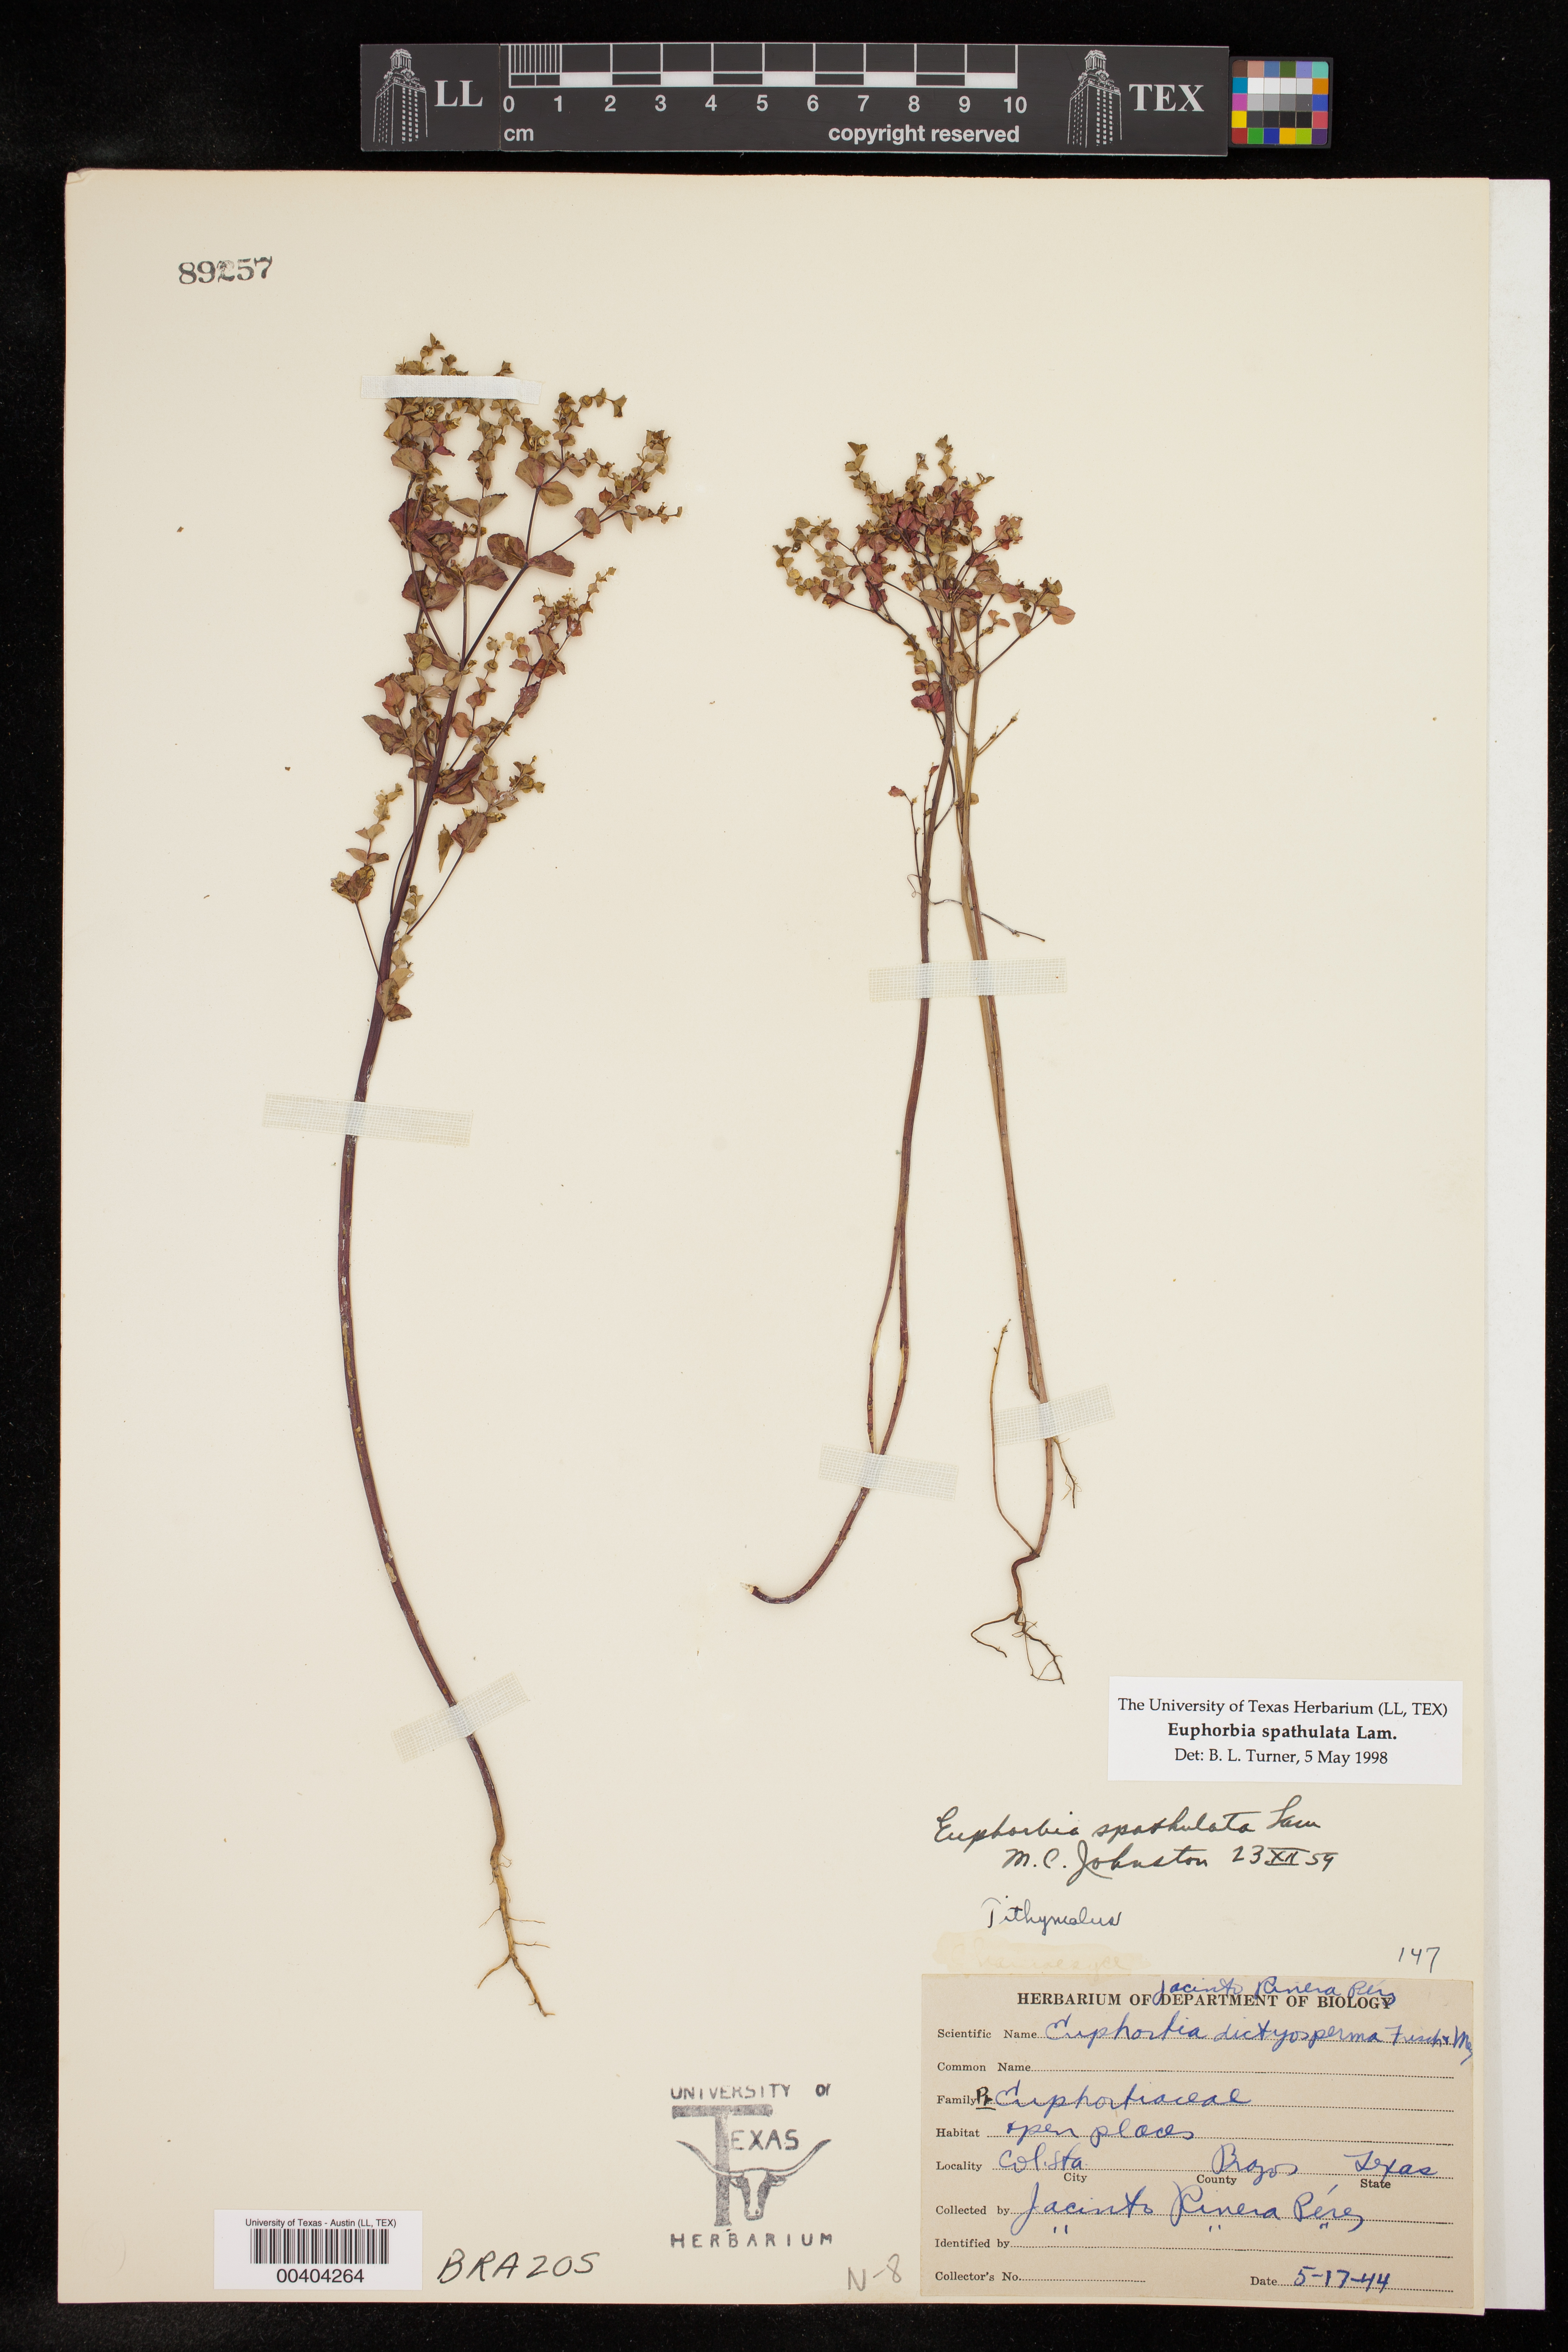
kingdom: Plantae
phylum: Tracheophyta
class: Magnoliopsida
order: Malpighiales
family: Euphorbiaceae
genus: Euphorbia
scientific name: Euphorbia spathulata
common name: Blunt spurge
